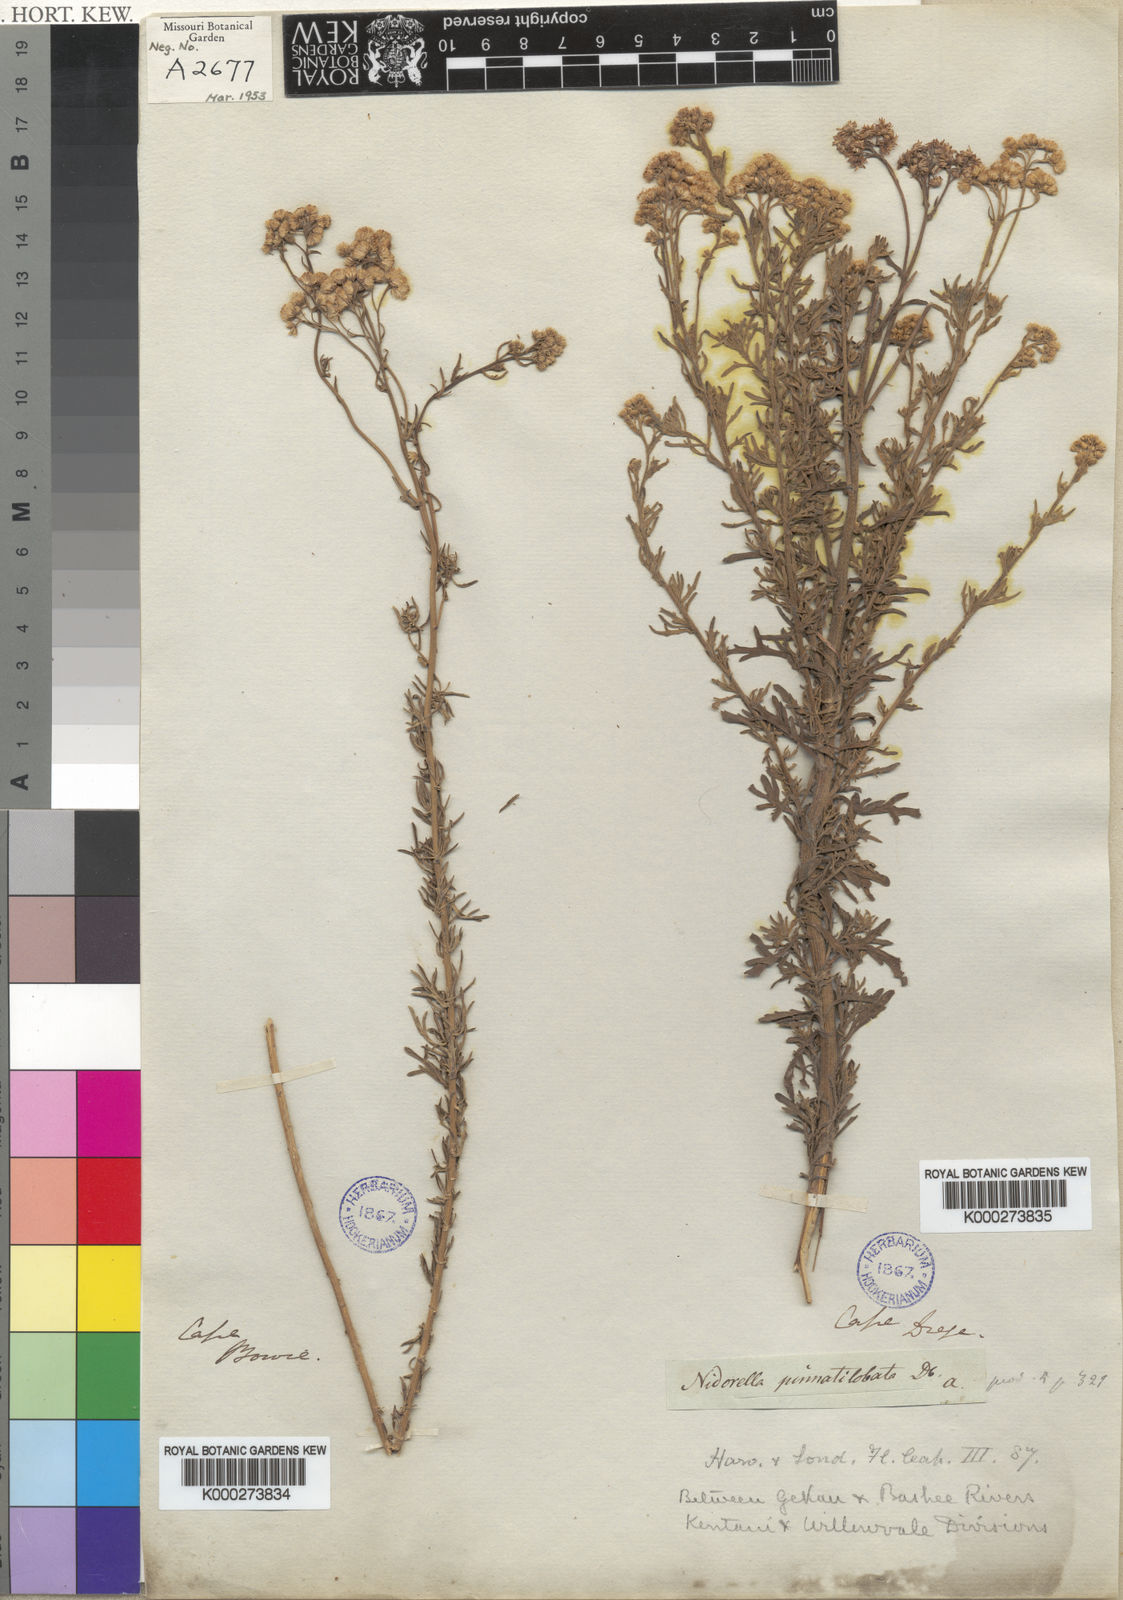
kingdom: Plantae
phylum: Tracheophyta
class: Magnoliopsida
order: Asterales
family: Asteraceae
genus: Nidorella
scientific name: Nidorella resedifolia
